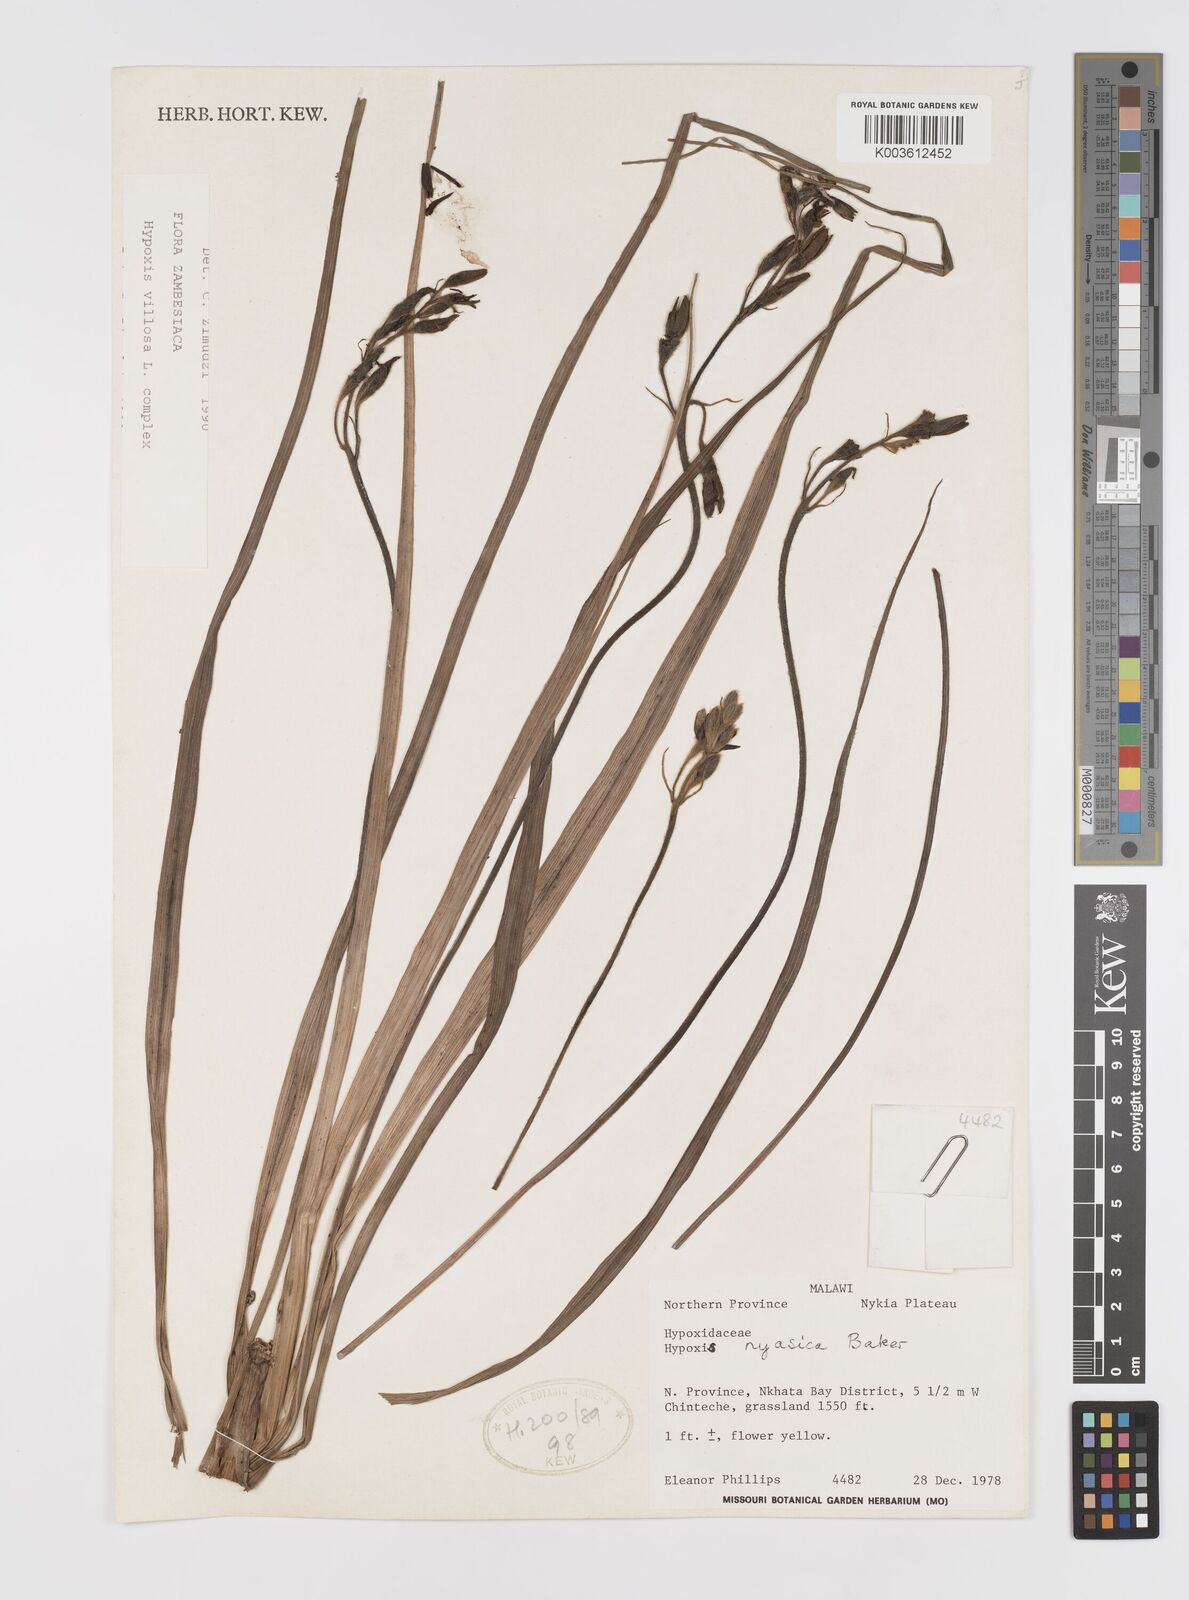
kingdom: Plantae
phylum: Tracheophyta
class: Liliopsida
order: Asparagales
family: Hypoxidaceae
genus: Hypoxis
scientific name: Hypoxis nyasica
